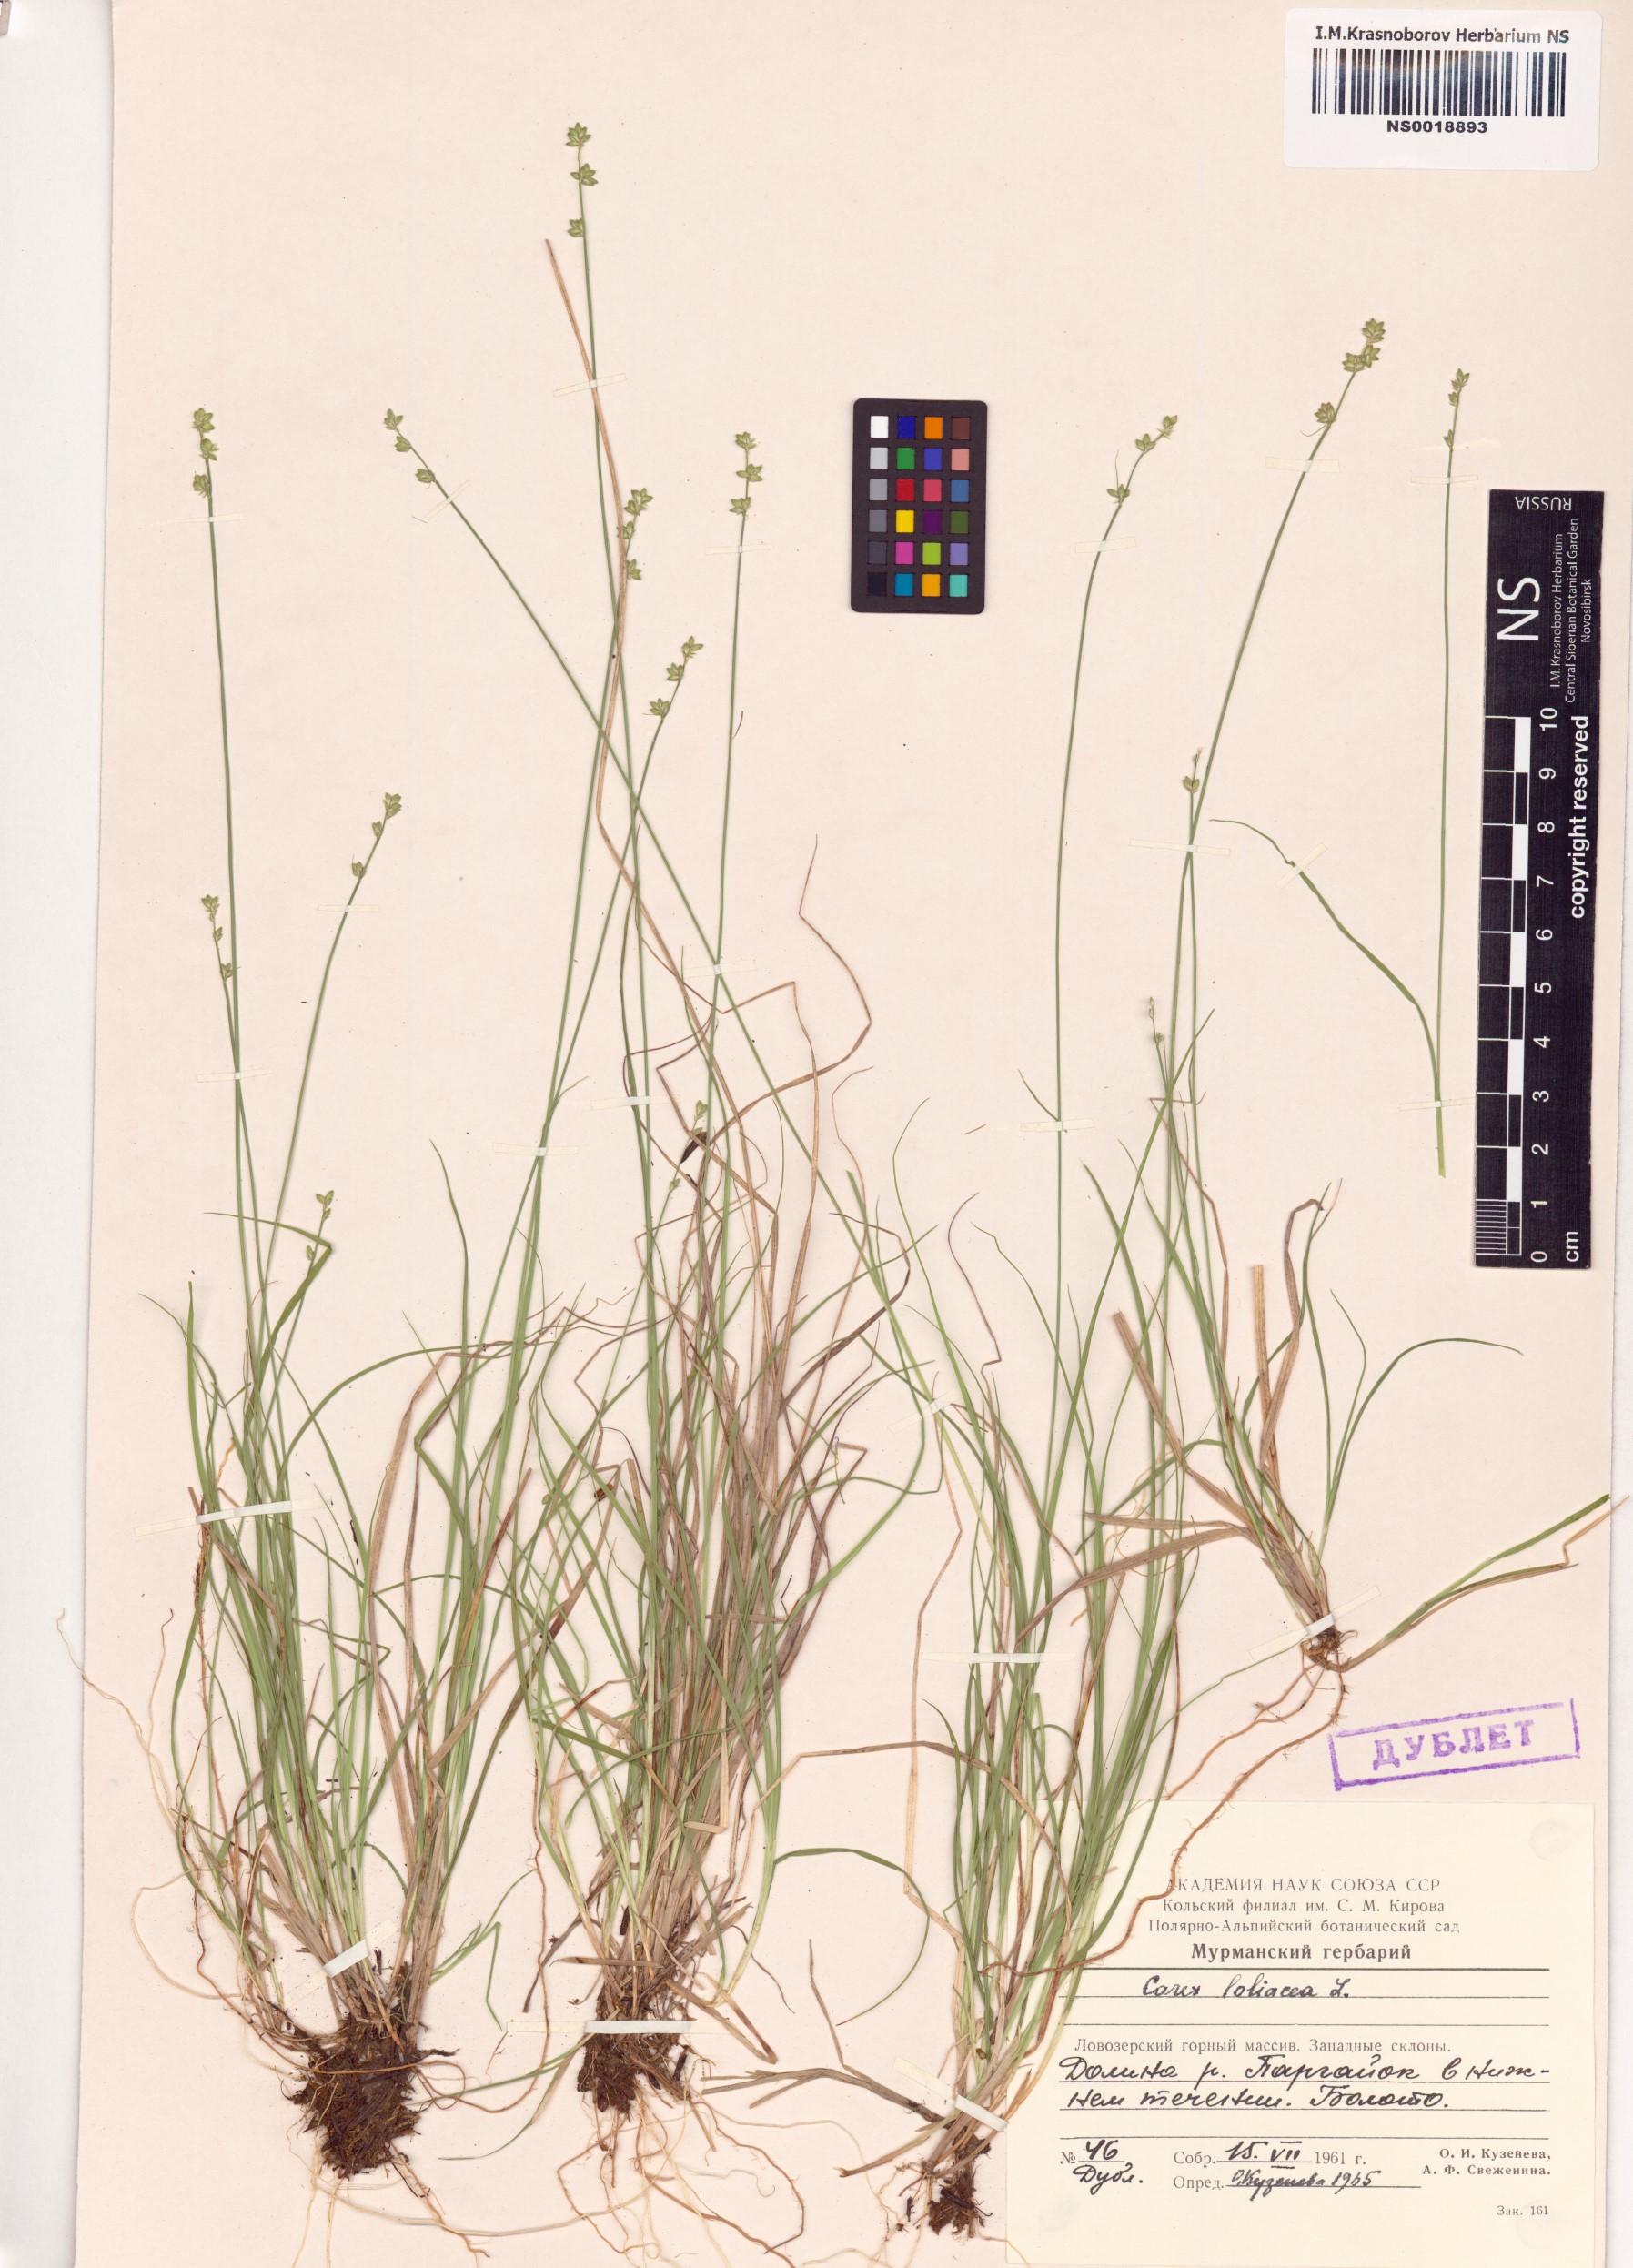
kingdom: Plantae
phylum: Tracheophyta
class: Liliopsida
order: Poales
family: Cyperaceae
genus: Carex
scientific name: Carex loliacea
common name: Ryegrass sedge
